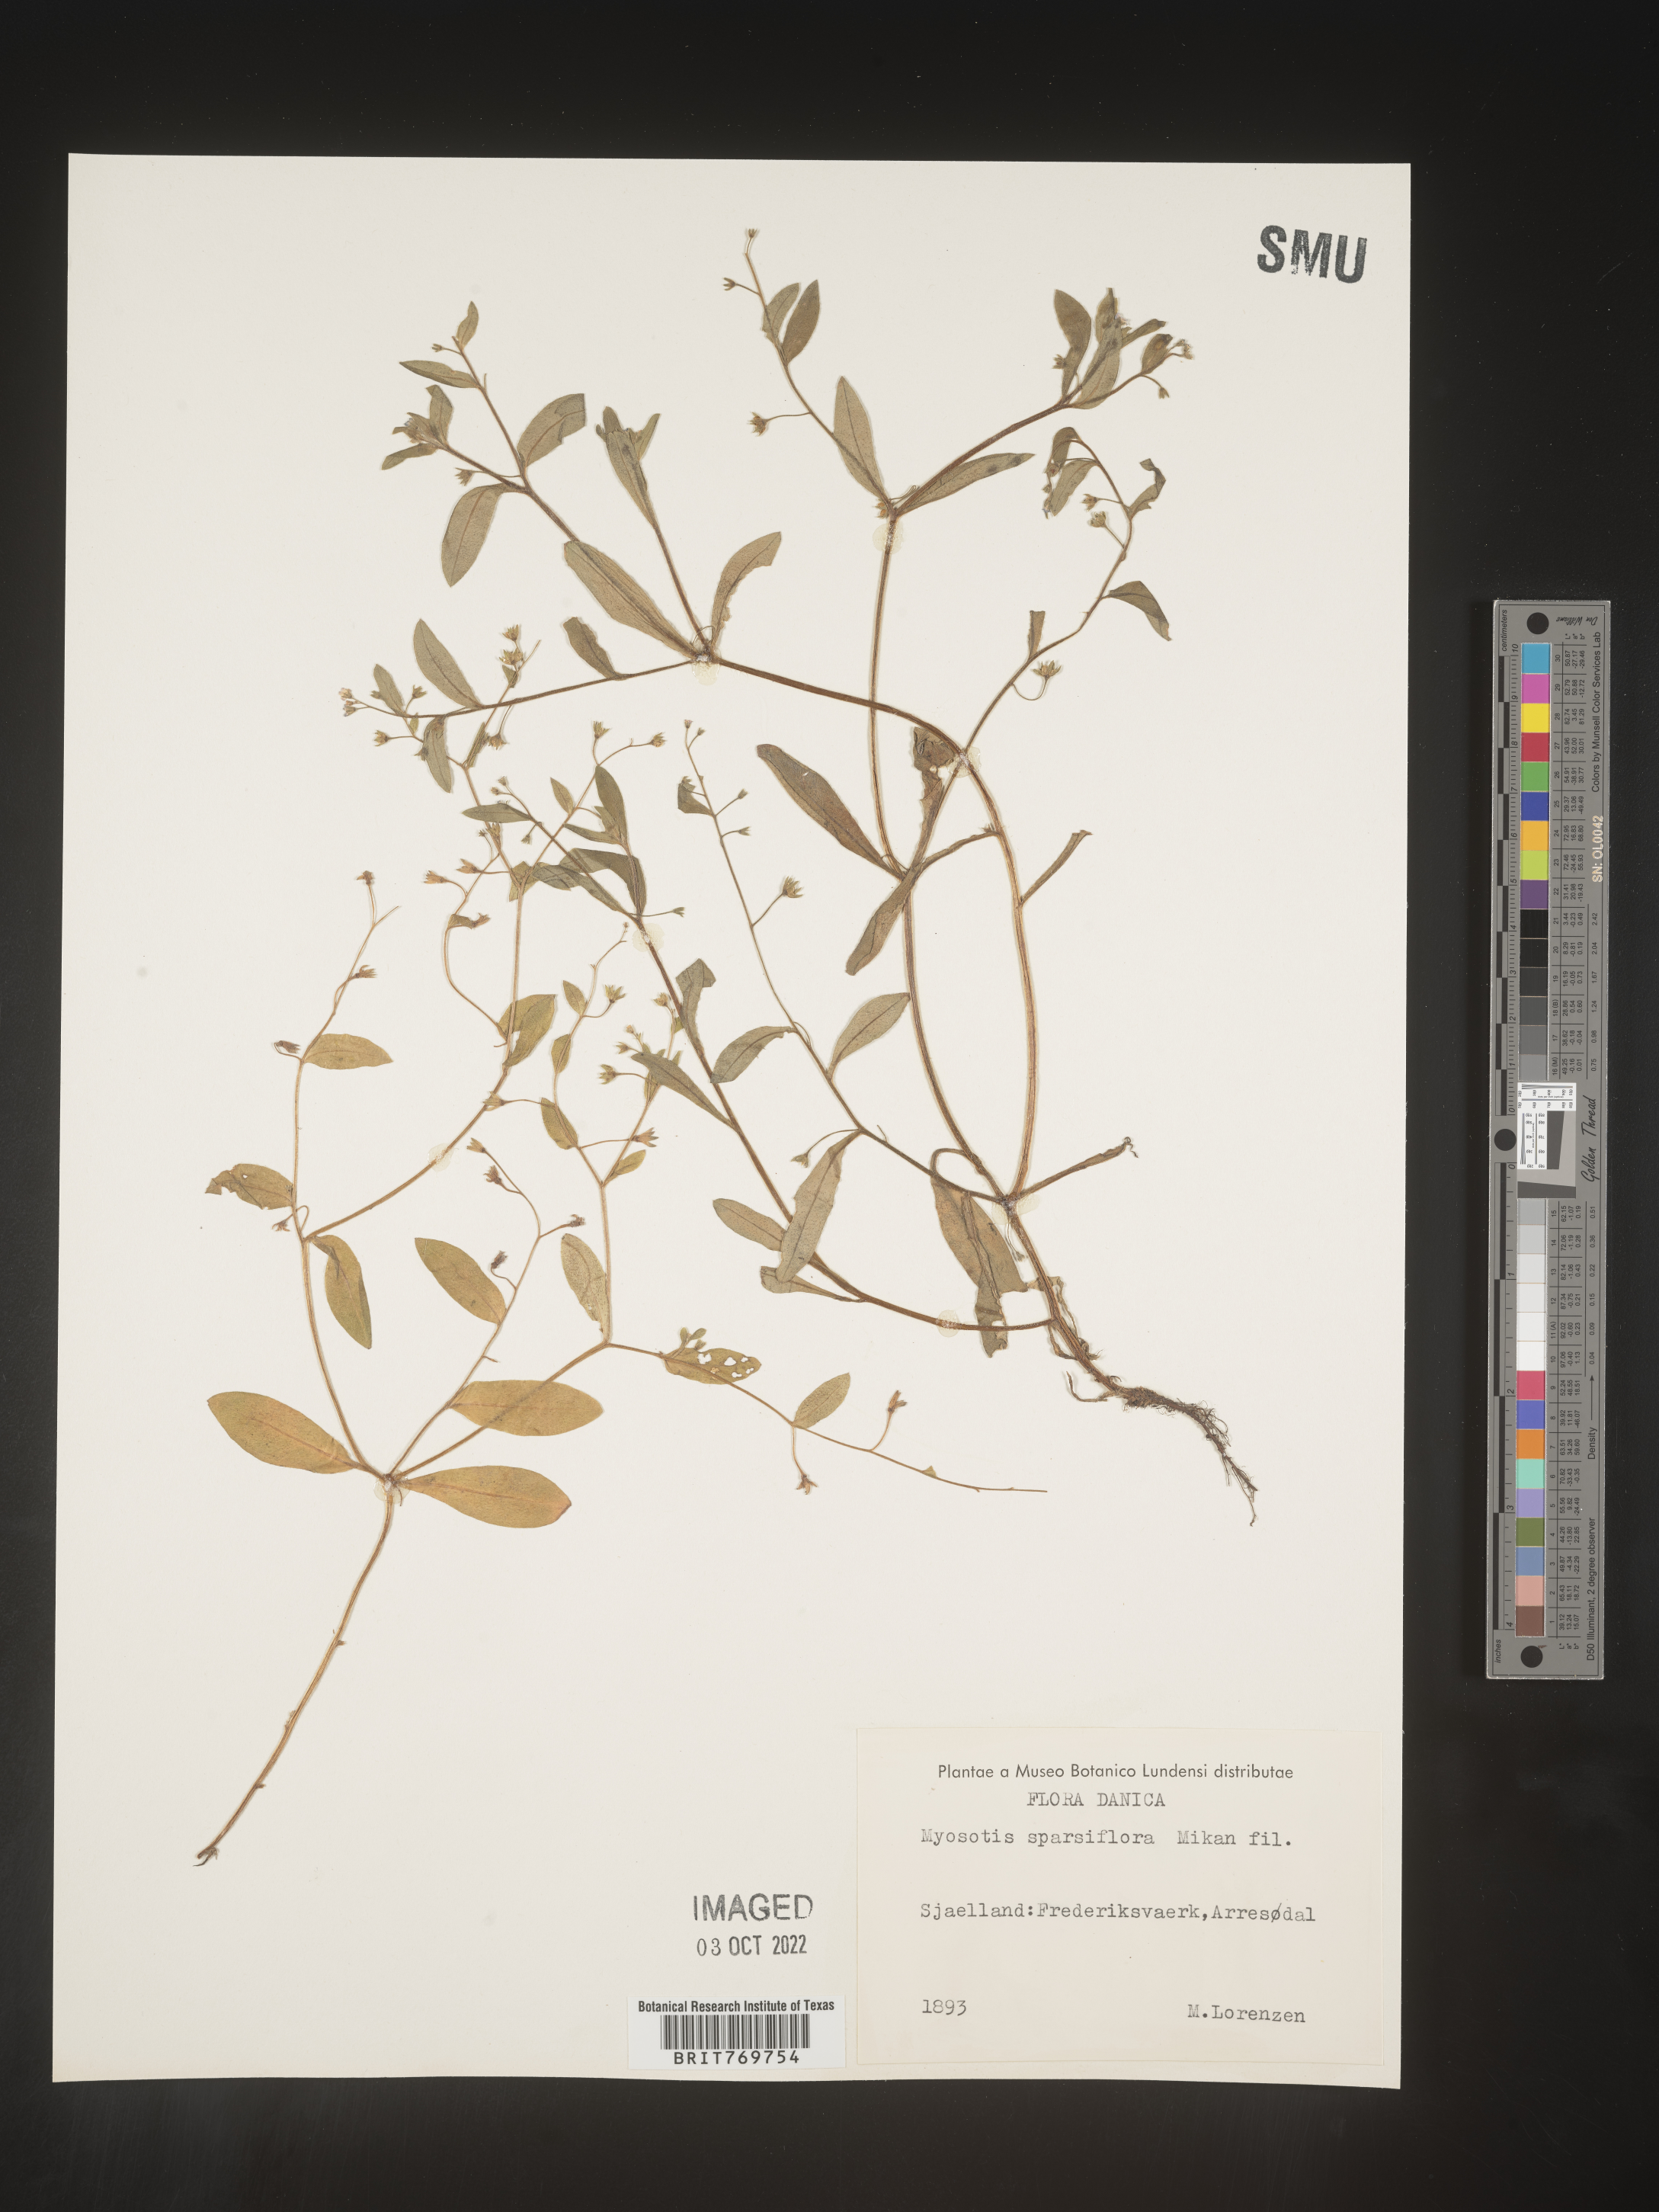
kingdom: Plantae
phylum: Tracheophyta
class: Magnoliopsida
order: Boraginales
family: Boraginaceae
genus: Myosotis
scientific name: Myosotis
